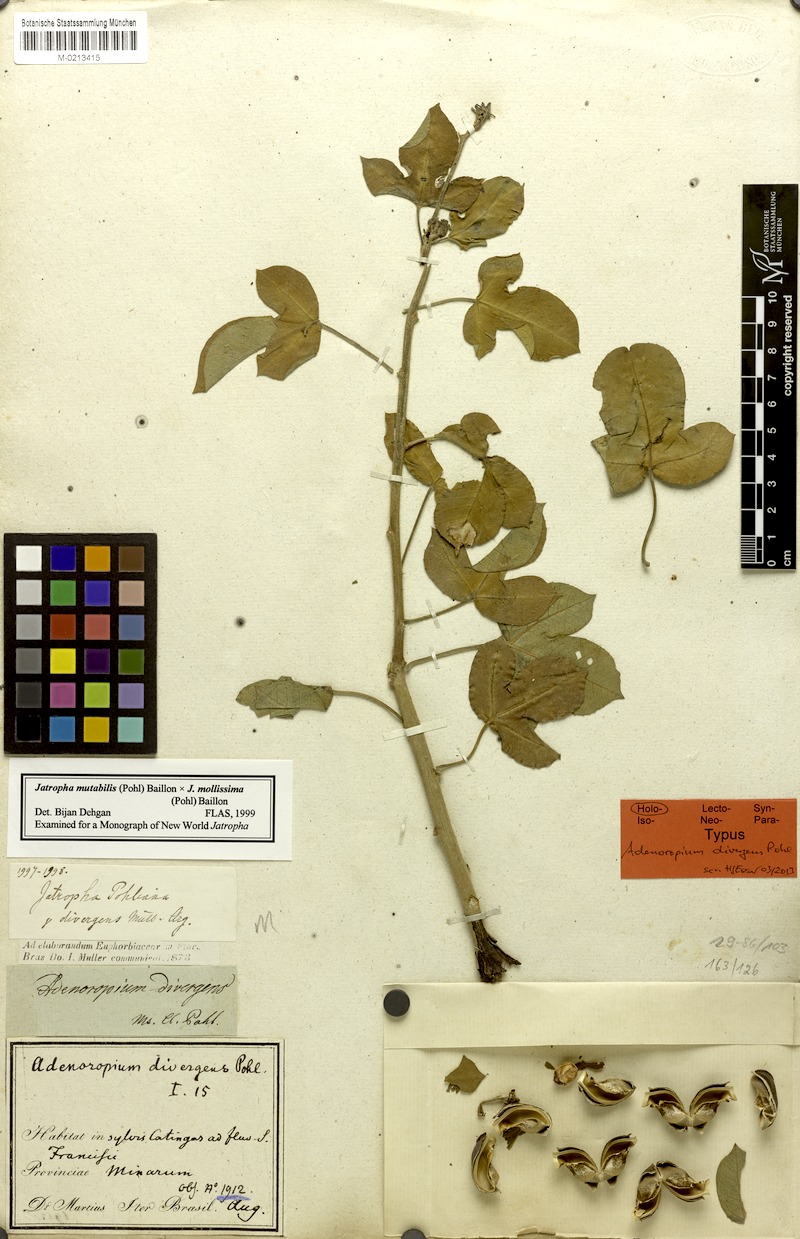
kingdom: Plantae
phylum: Tracheophyta
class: Magnoliopsida
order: Malpighiales
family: Euphorbiaceae
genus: Jatropha
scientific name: Jatropha mollissima
